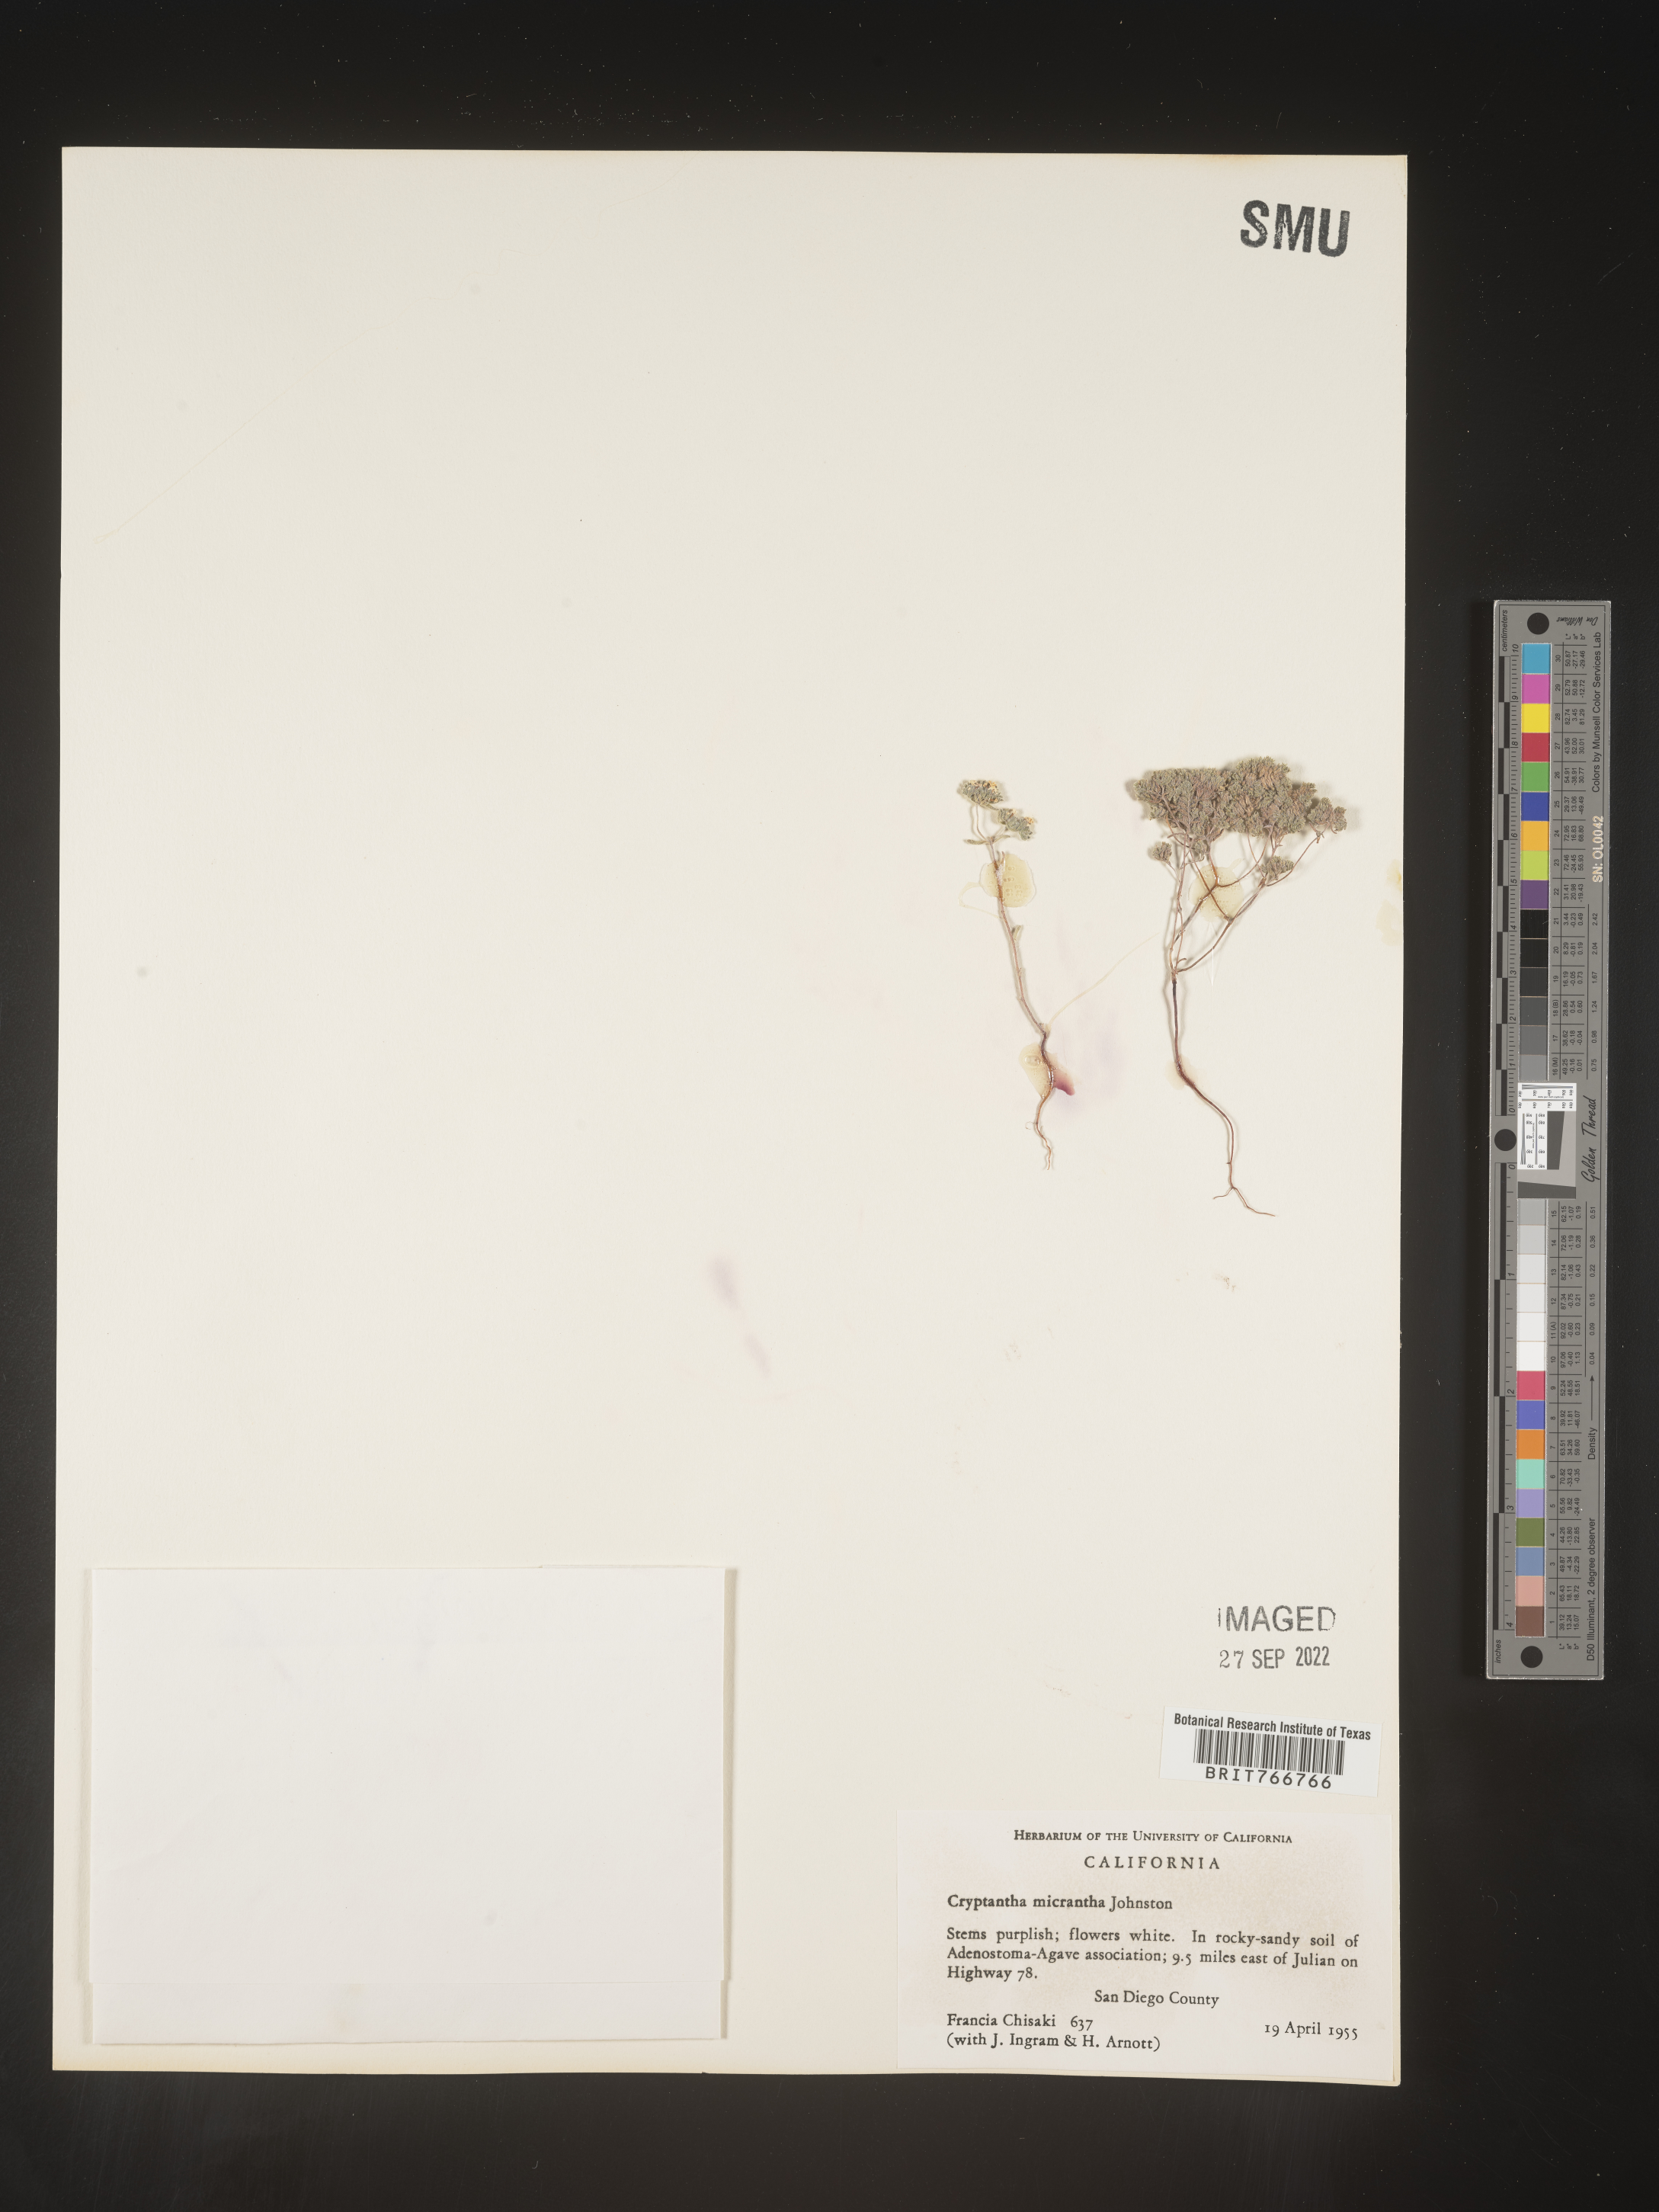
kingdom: Plantae
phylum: Tracheophyta
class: Magnoliopsida
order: Boraginales
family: Boraginaceae
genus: Cryptantha
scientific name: Cryptantha
